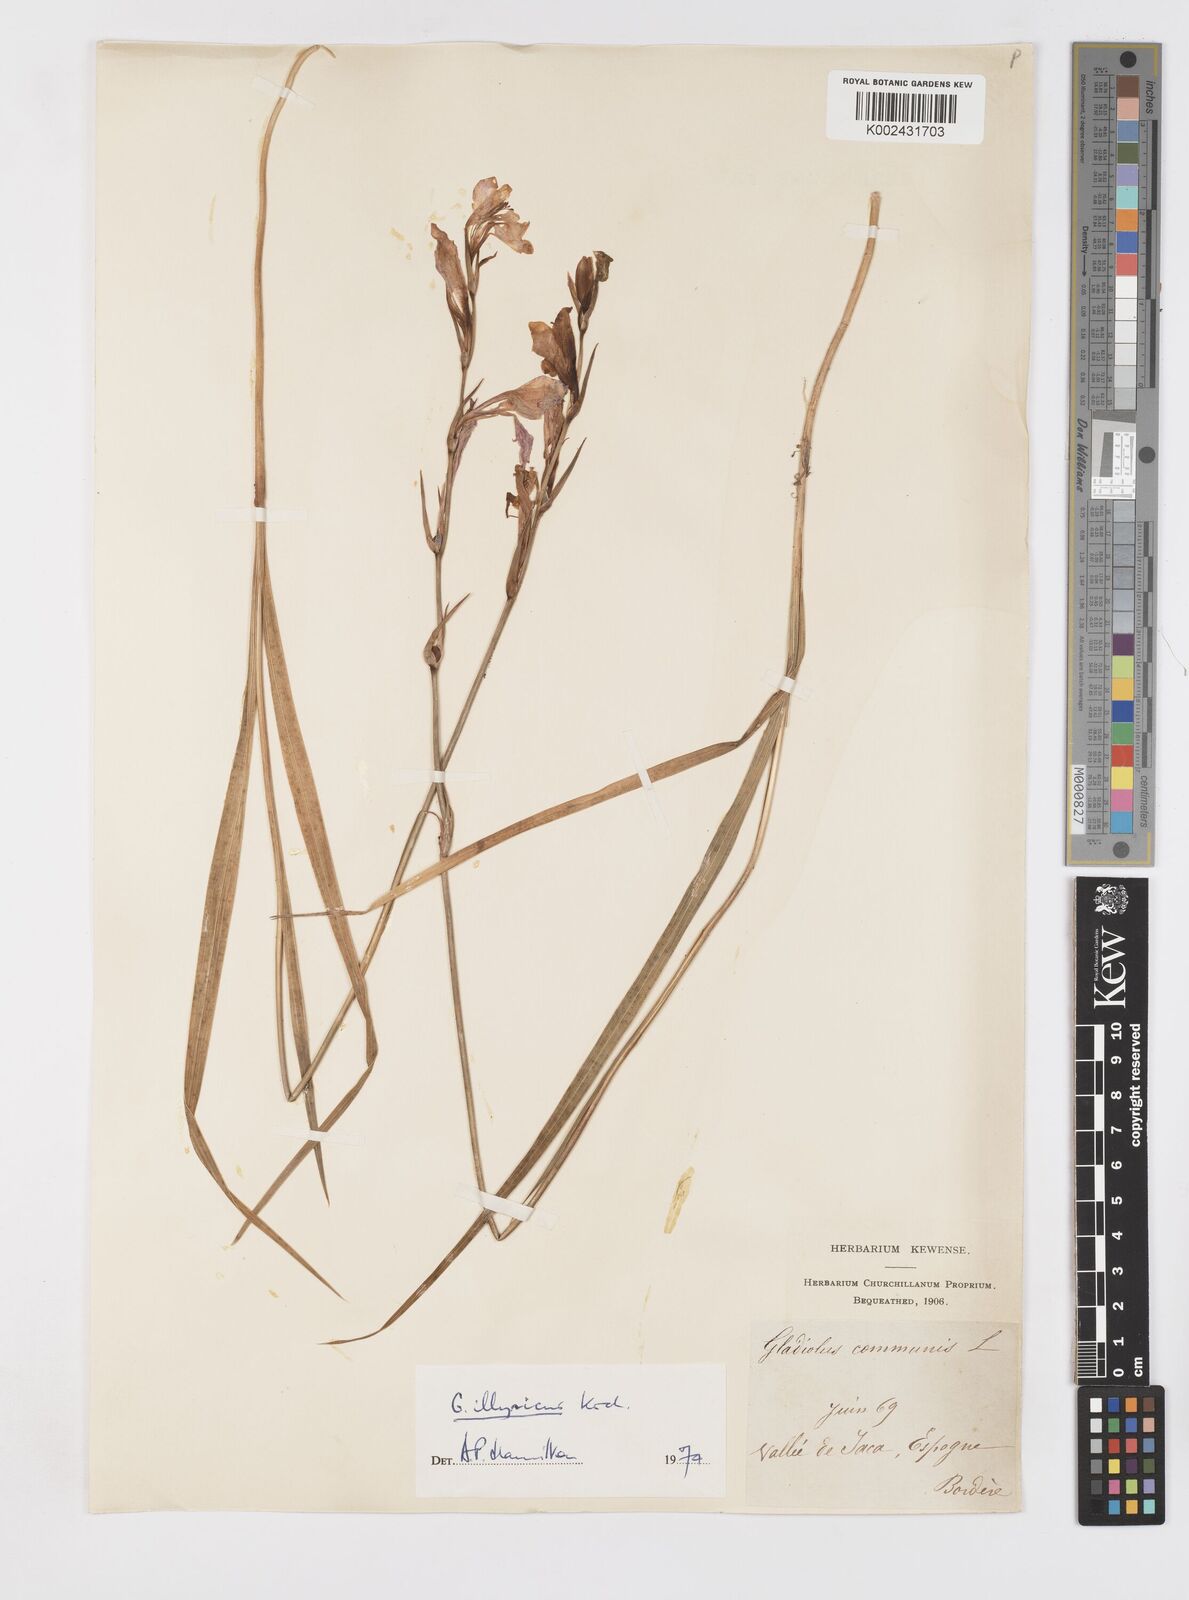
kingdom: Plantae
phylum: Tracheophyta
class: Liliopsida
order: Asparagales
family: Iridaceae
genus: Gladiolus
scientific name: Gladiolus illyricus
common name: Wild gladiolus
